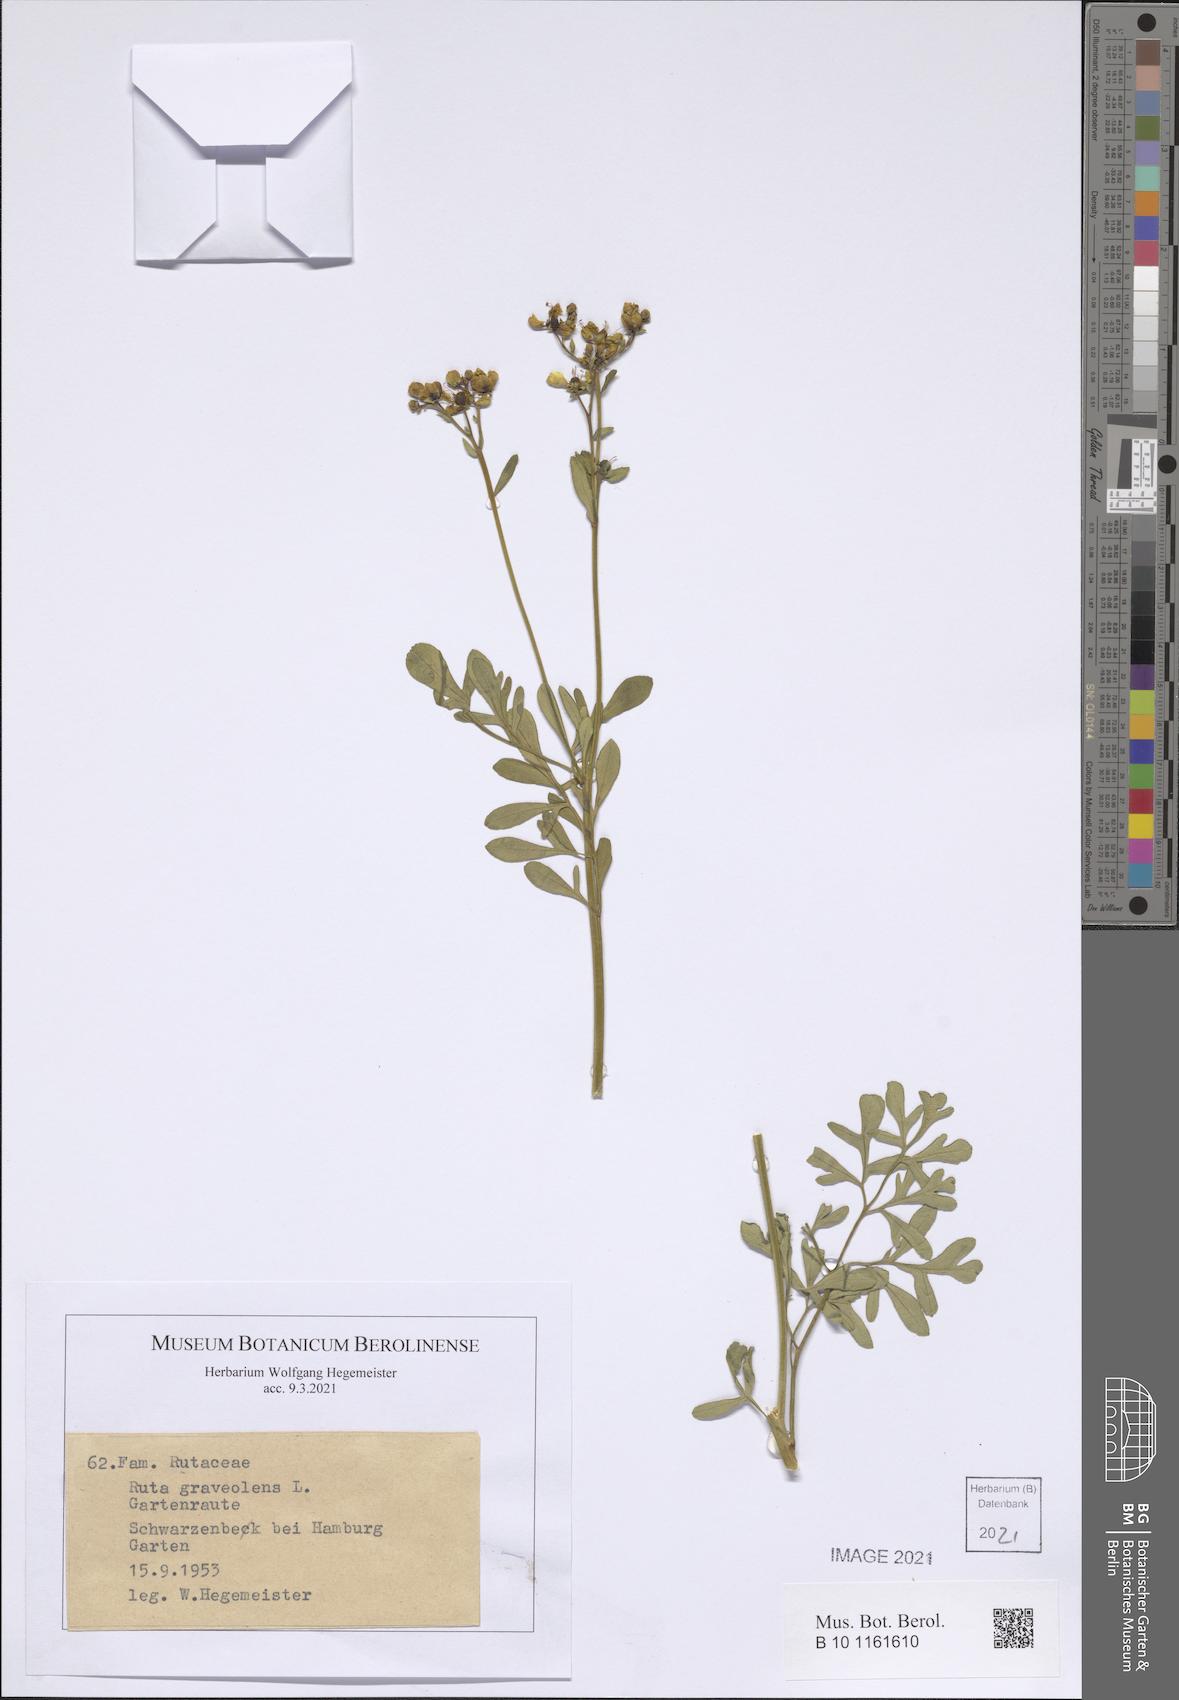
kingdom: Plantae
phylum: Tracheophyta
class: Magnoliopsida
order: Sapindales
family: Rutaceae
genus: Ruta
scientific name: Ruta graveolens
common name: Common rue
